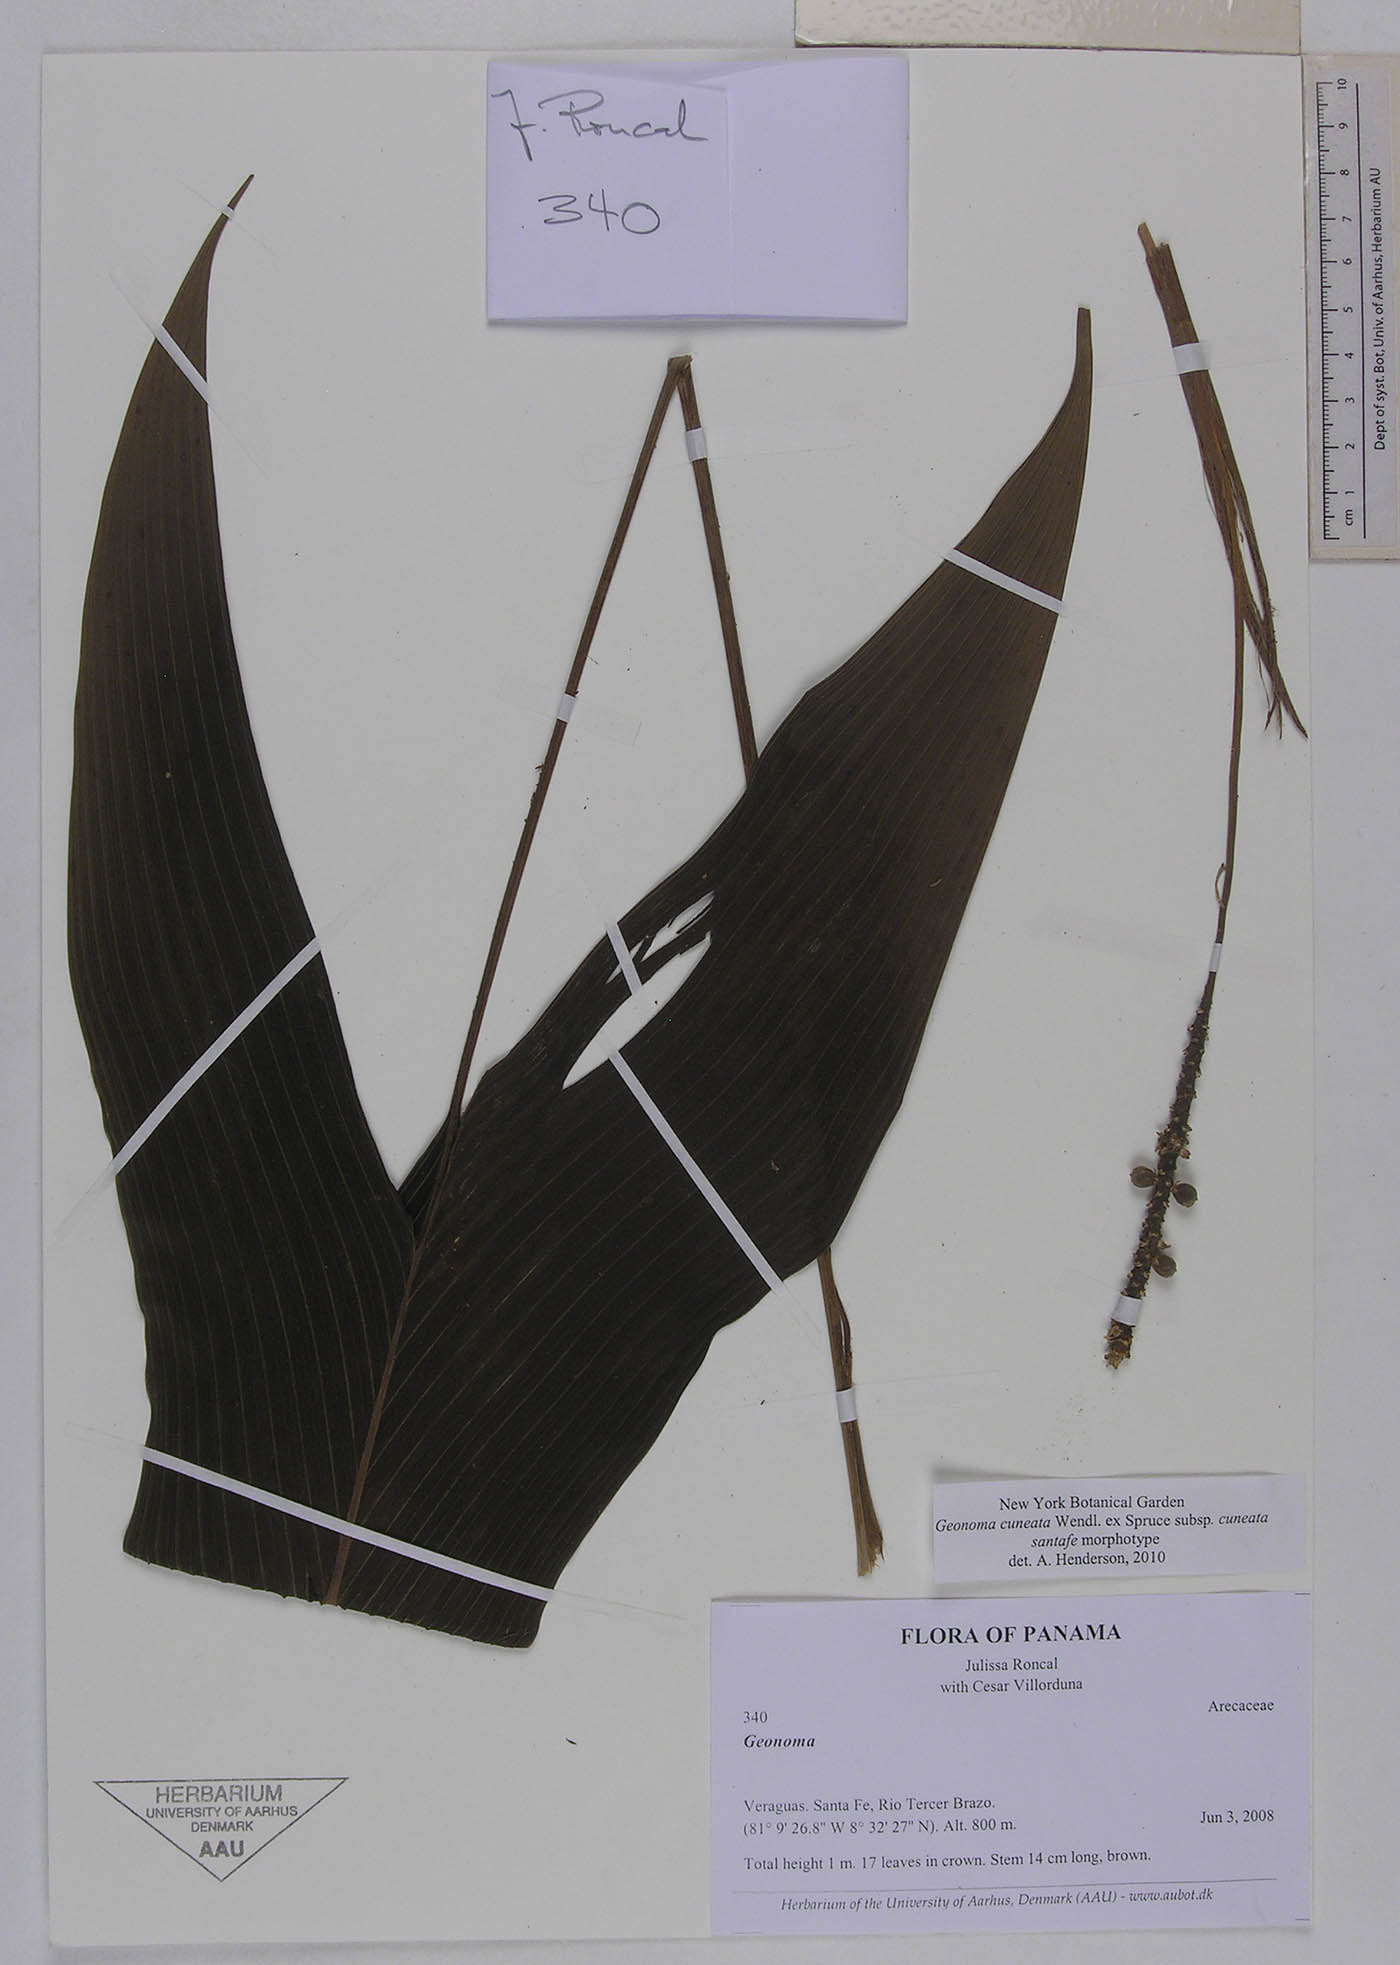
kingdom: Plantae
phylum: Tracheophyta
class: Liliopsida
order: Arecales
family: Arecaceae
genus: Geonoma
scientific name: Geonoma cuneata
